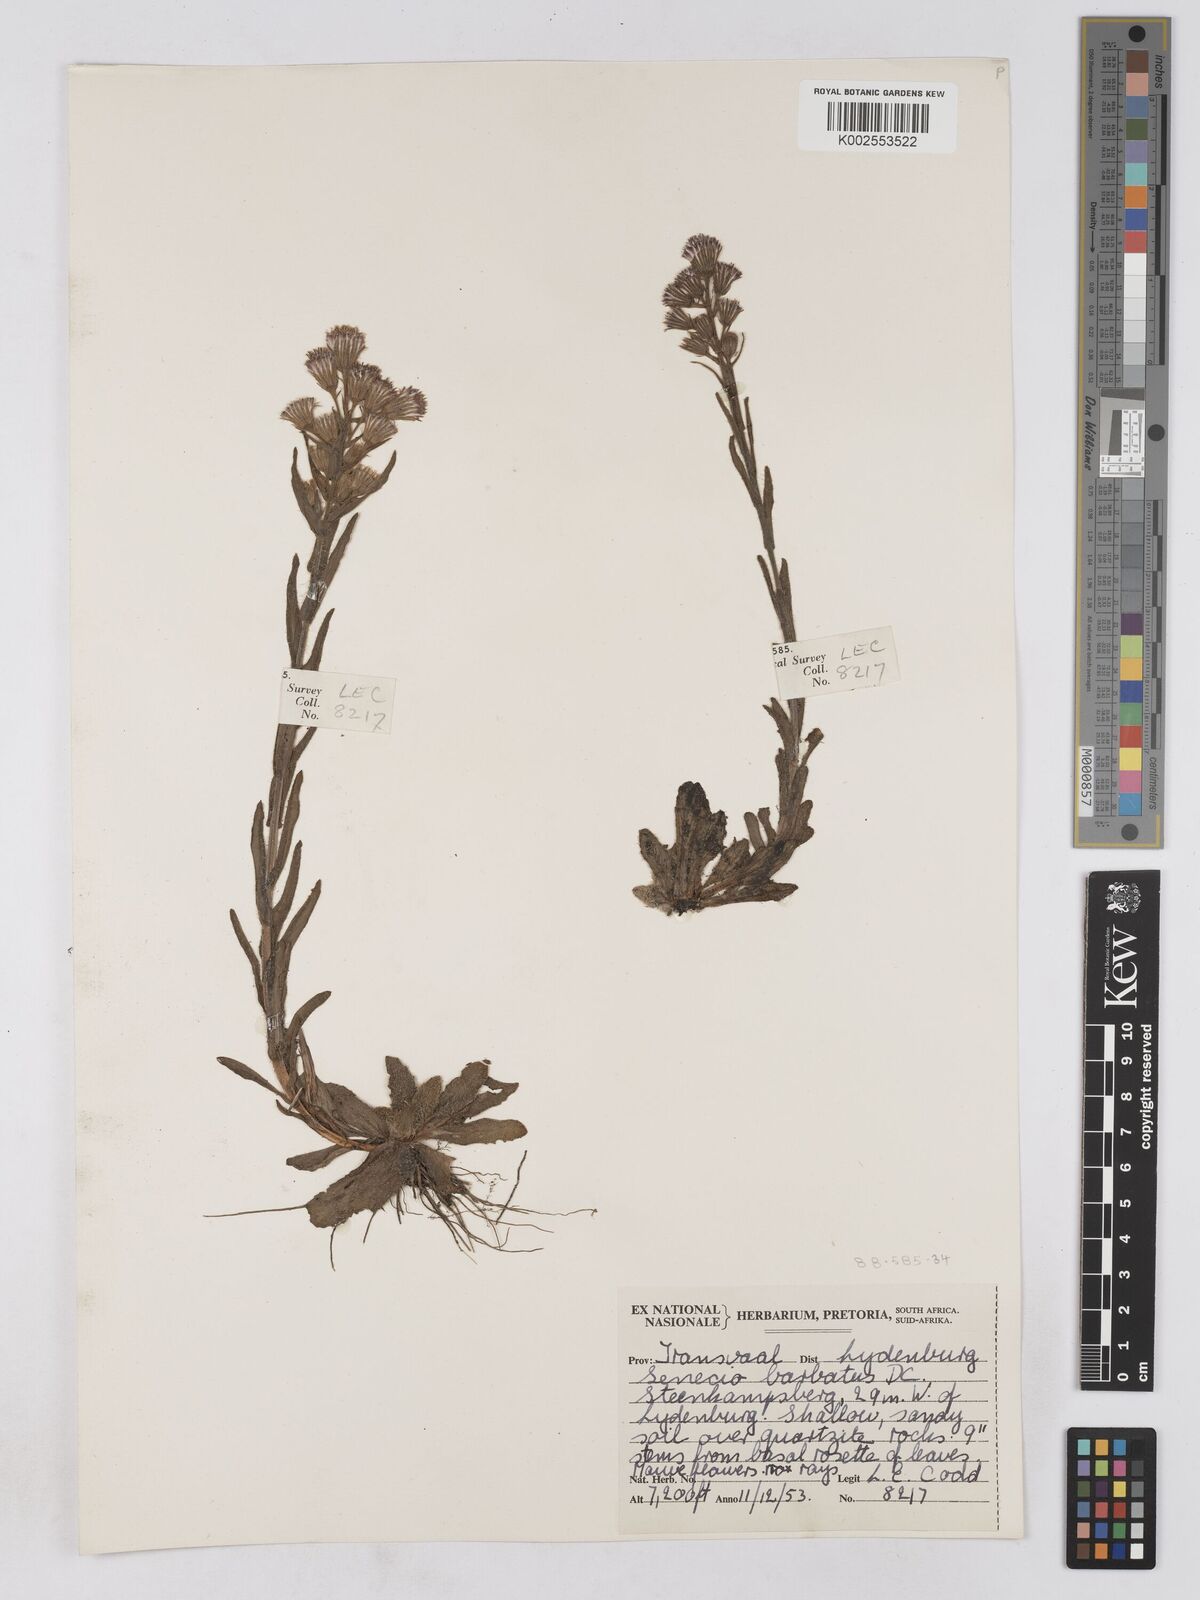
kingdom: Plantae
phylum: Tracheophyta
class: Magnoliopsida
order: Asterales
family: Asteraceae
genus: Senecio
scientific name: Senecio barbatus
